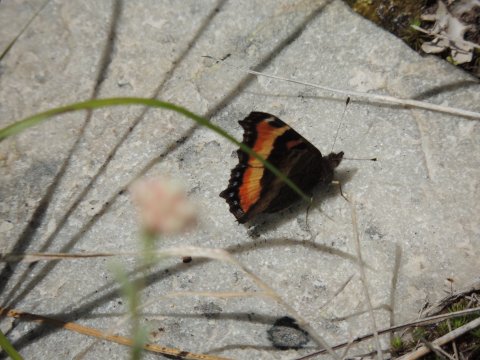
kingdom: Animalia
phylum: Arthropoda
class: Insecta
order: Lepidoptera
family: Nymphalidae
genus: Aglais
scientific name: Aglais milberti
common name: Milbert's Tortoiseshell
